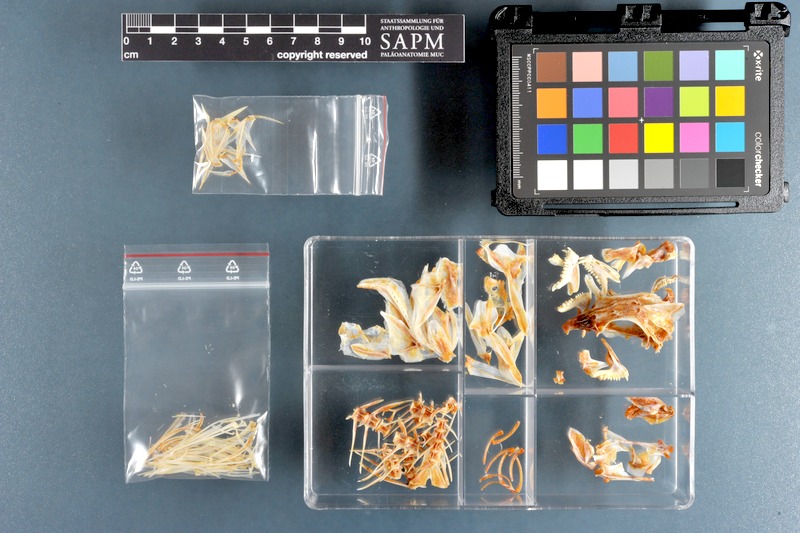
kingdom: Animalia
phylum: Chordata
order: Perciformes
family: Lethrinidae
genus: Lethrinus
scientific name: Lethrinus miniatus
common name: Trumpet emperor
